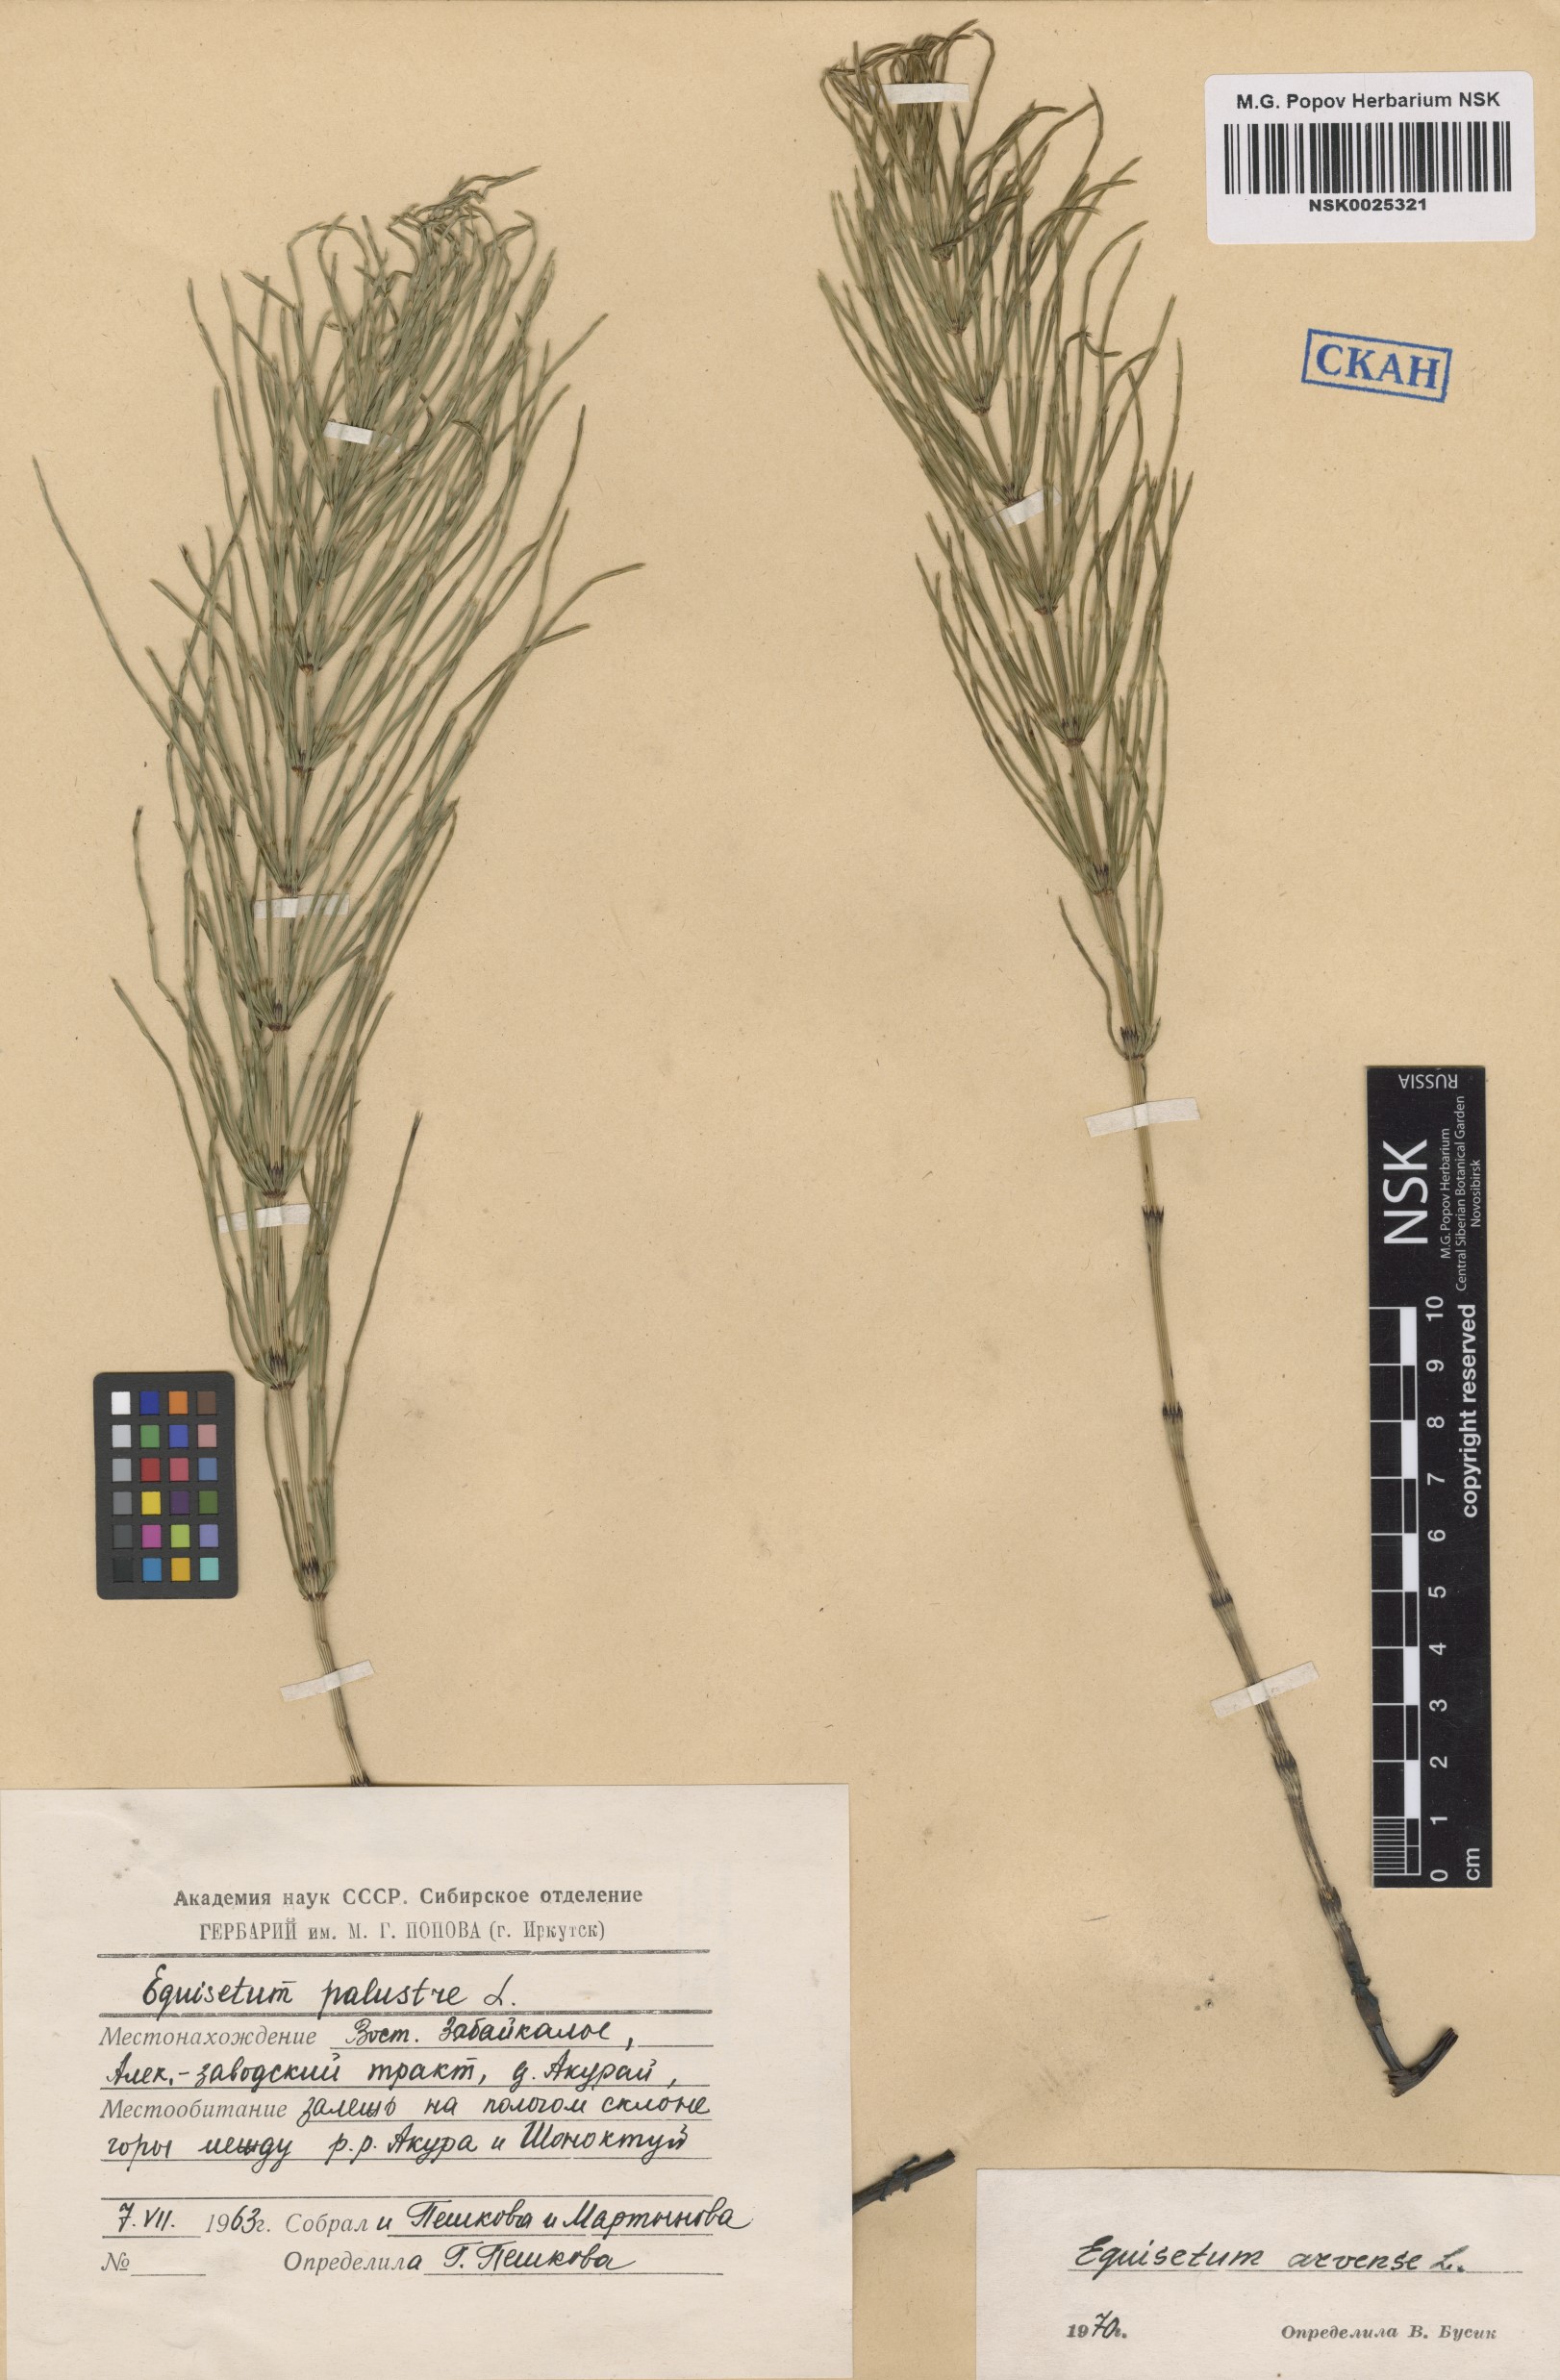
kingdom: Plantae
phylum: Tracheophyta
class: Polypodiopsida
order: Equisetales
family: Equisetaceae
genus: Equisetum
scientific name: Equisetum arvense
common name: Field horsetail
